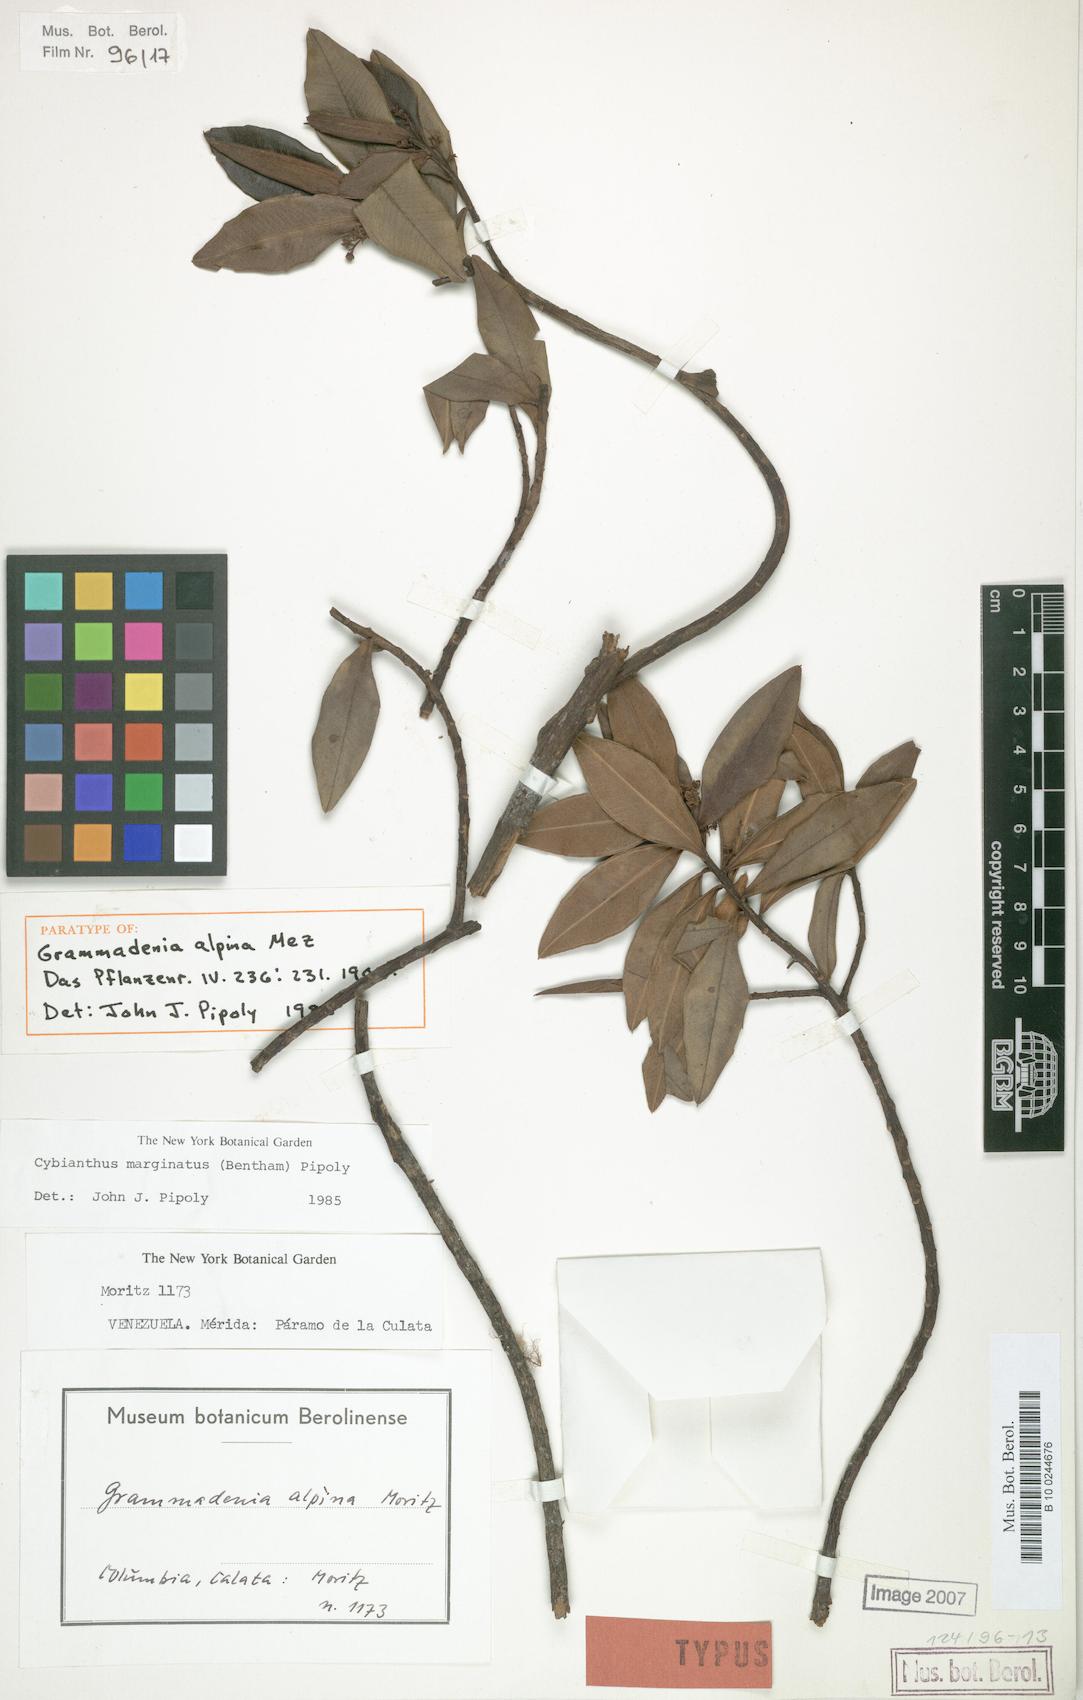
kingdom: Plantae
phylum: Tracheophyta
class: Magnoliopsida
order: Ericales
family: Primulaceae
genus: Cybianthus
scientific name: Cybianthus marginatus
